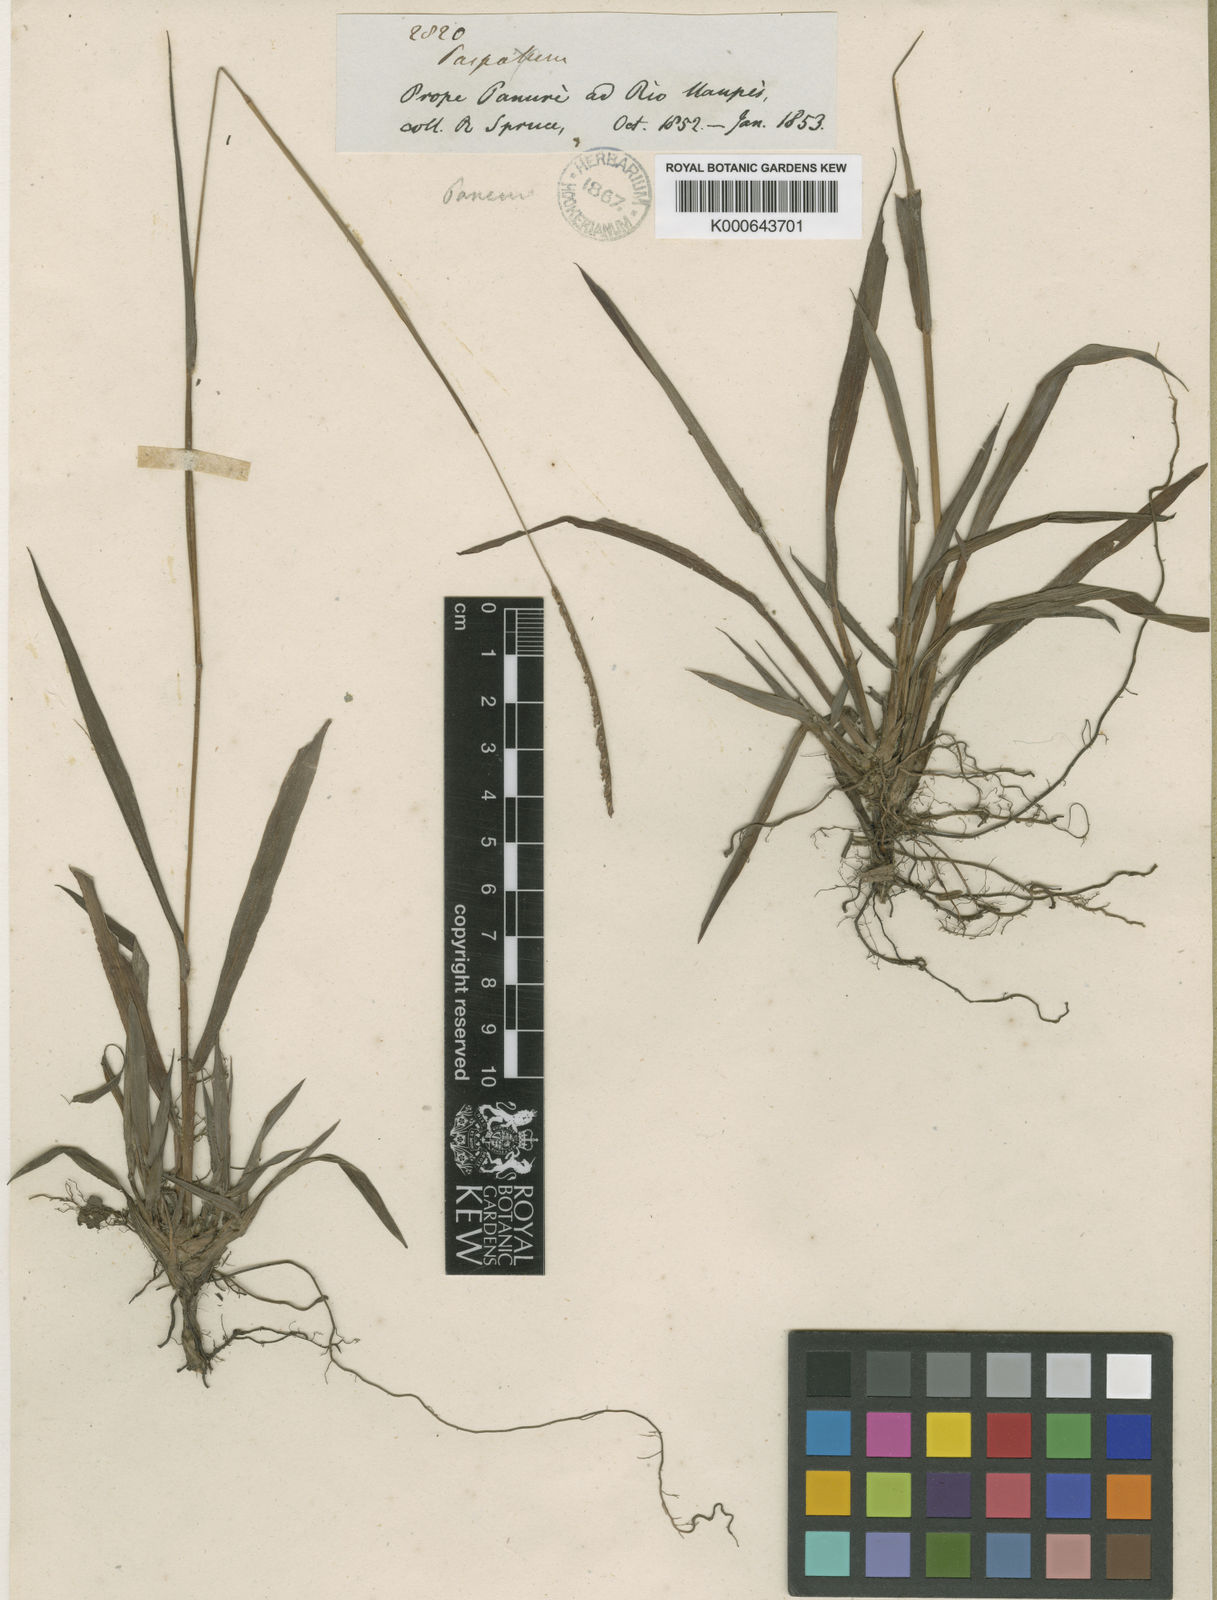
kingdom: Plantae
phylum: Tracheophyta
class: Liliopsida
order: Poales
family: Poaceae
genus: Paspalum
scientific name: Paspalum subfalcatum
